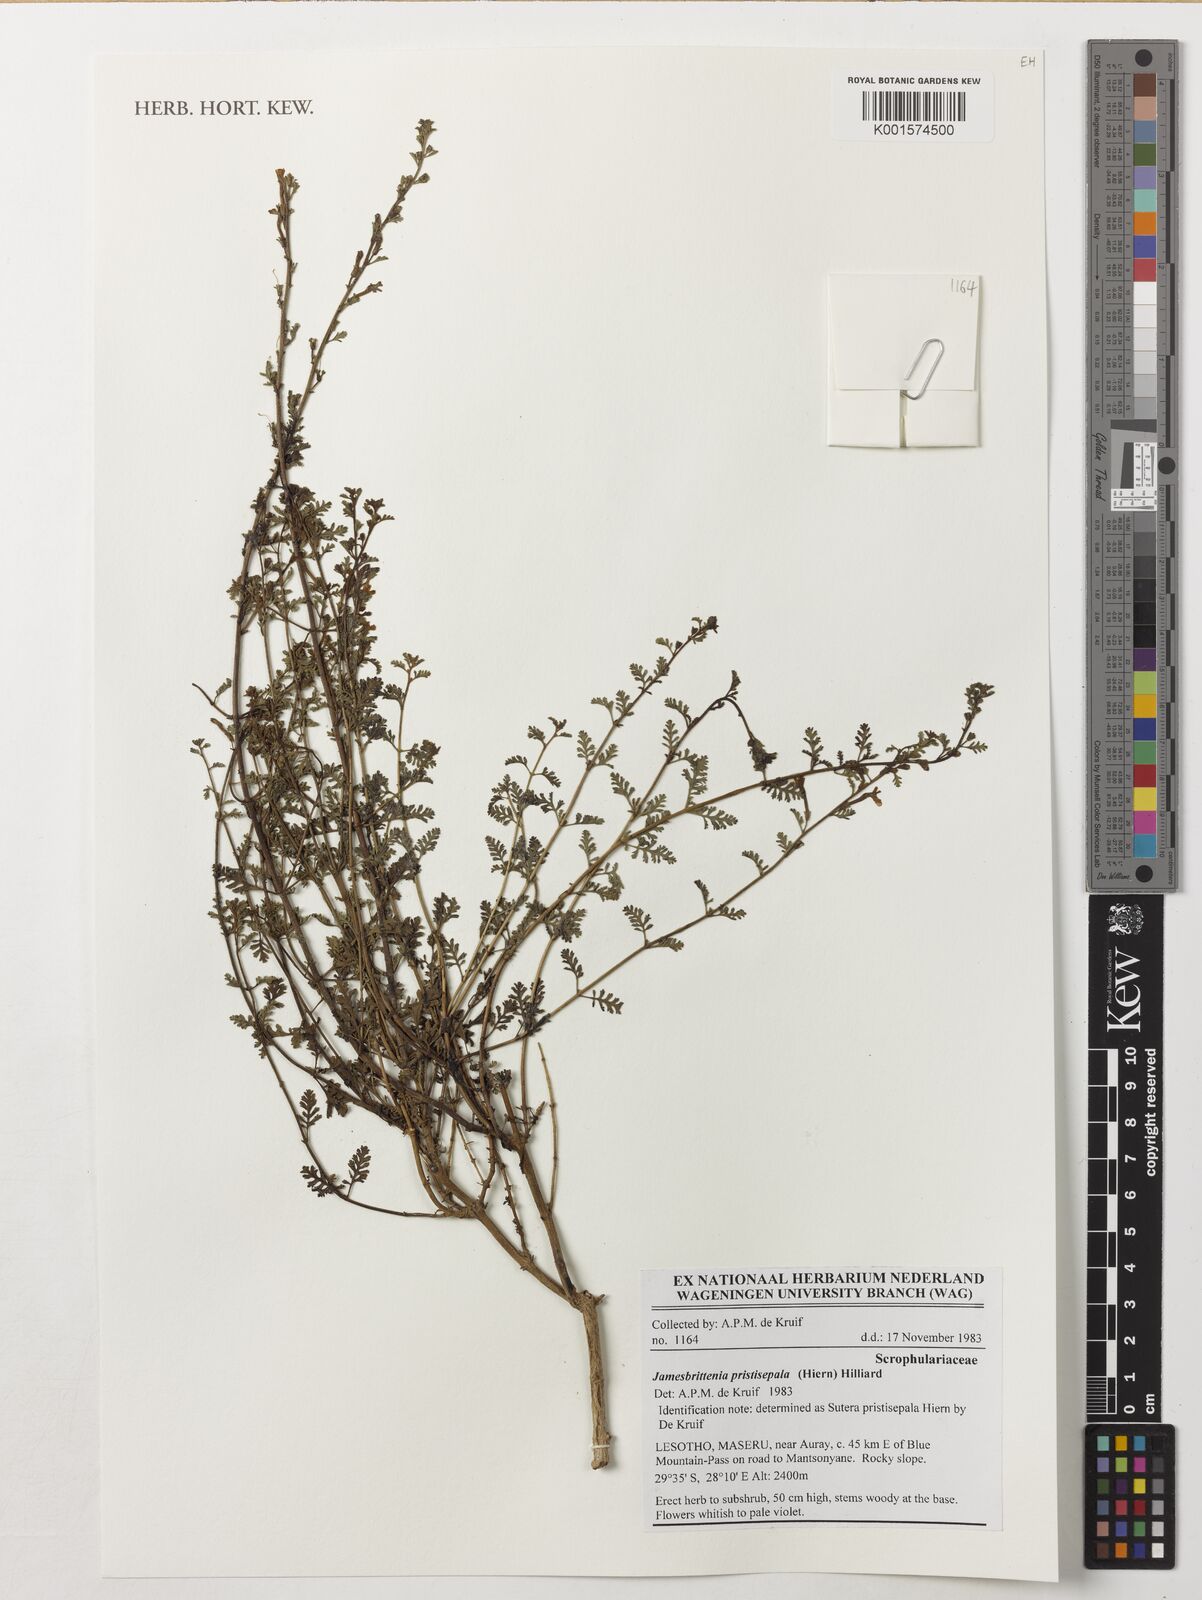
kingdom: Plantae
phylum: Tracheophyta
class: Magnoliopsida
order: Lamiales
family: Scrophulariaceae
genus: Jamesbrittenia
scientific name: Jamesbrittenia pristisepala
